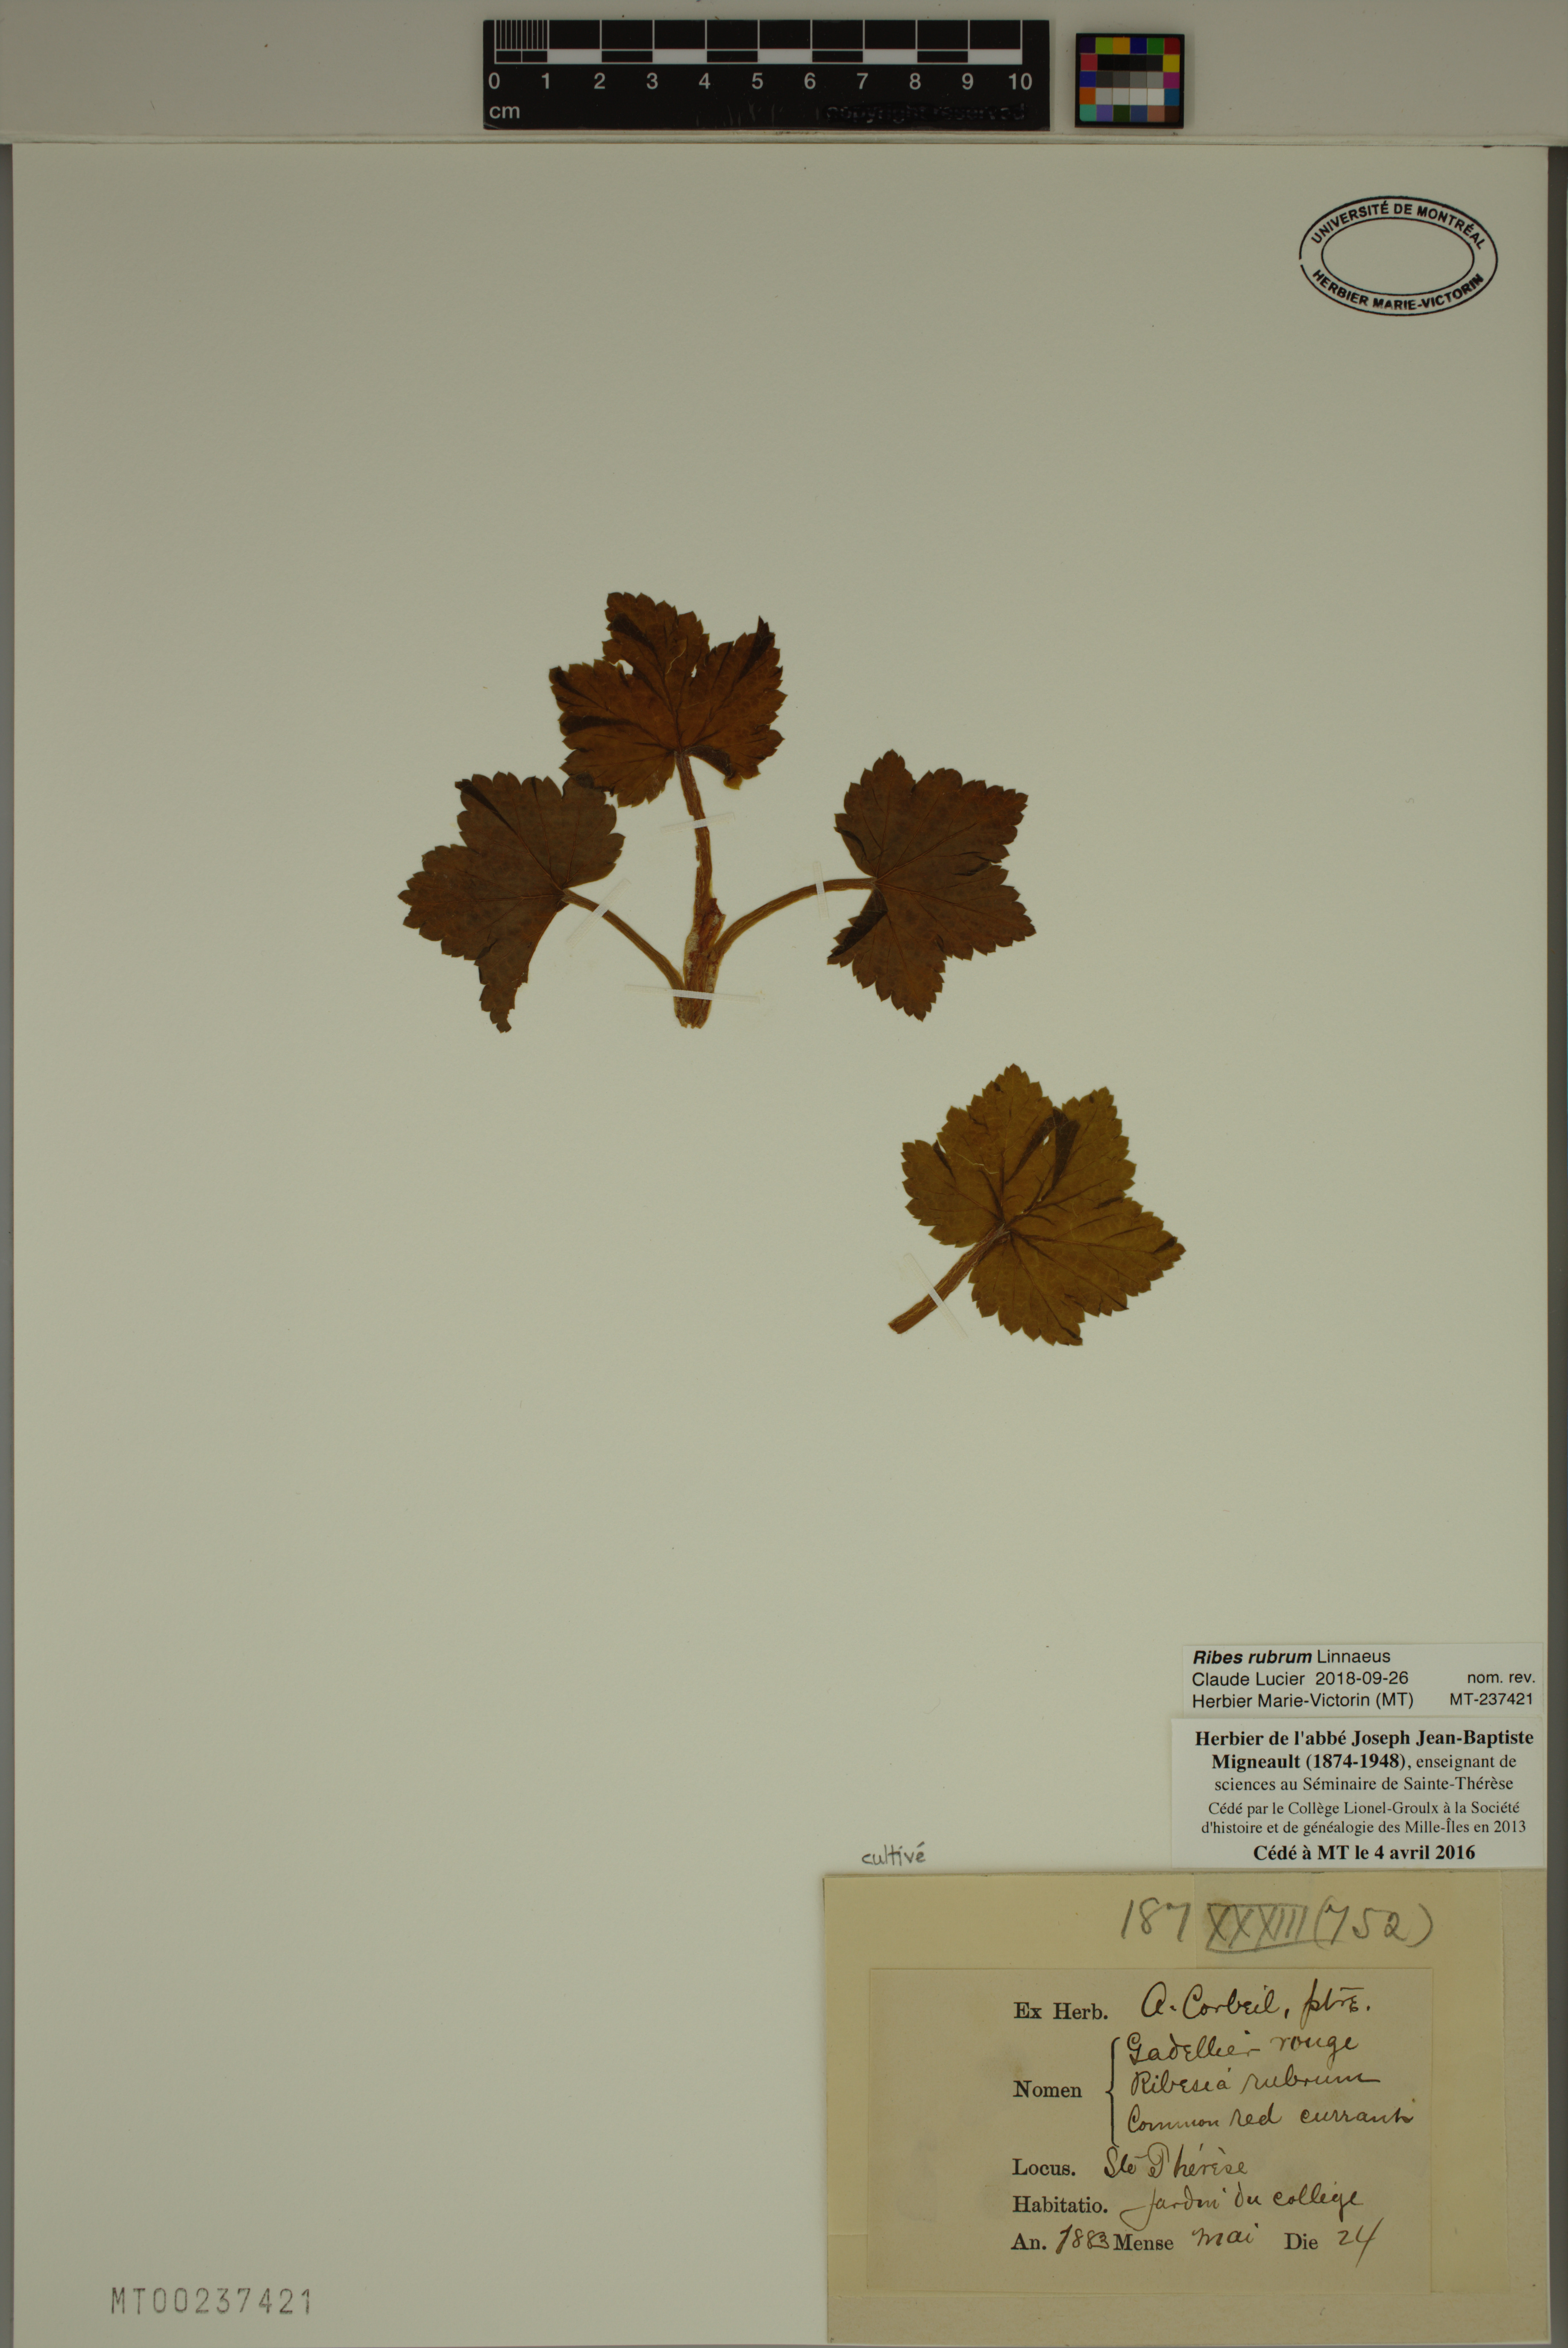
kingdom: Plantae
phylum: Tracheophyta
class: Magnoliopsida
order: Saxifragales
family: Grossulariaceae
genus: Ribes
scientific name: Ribes rubrum
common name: Red currant
